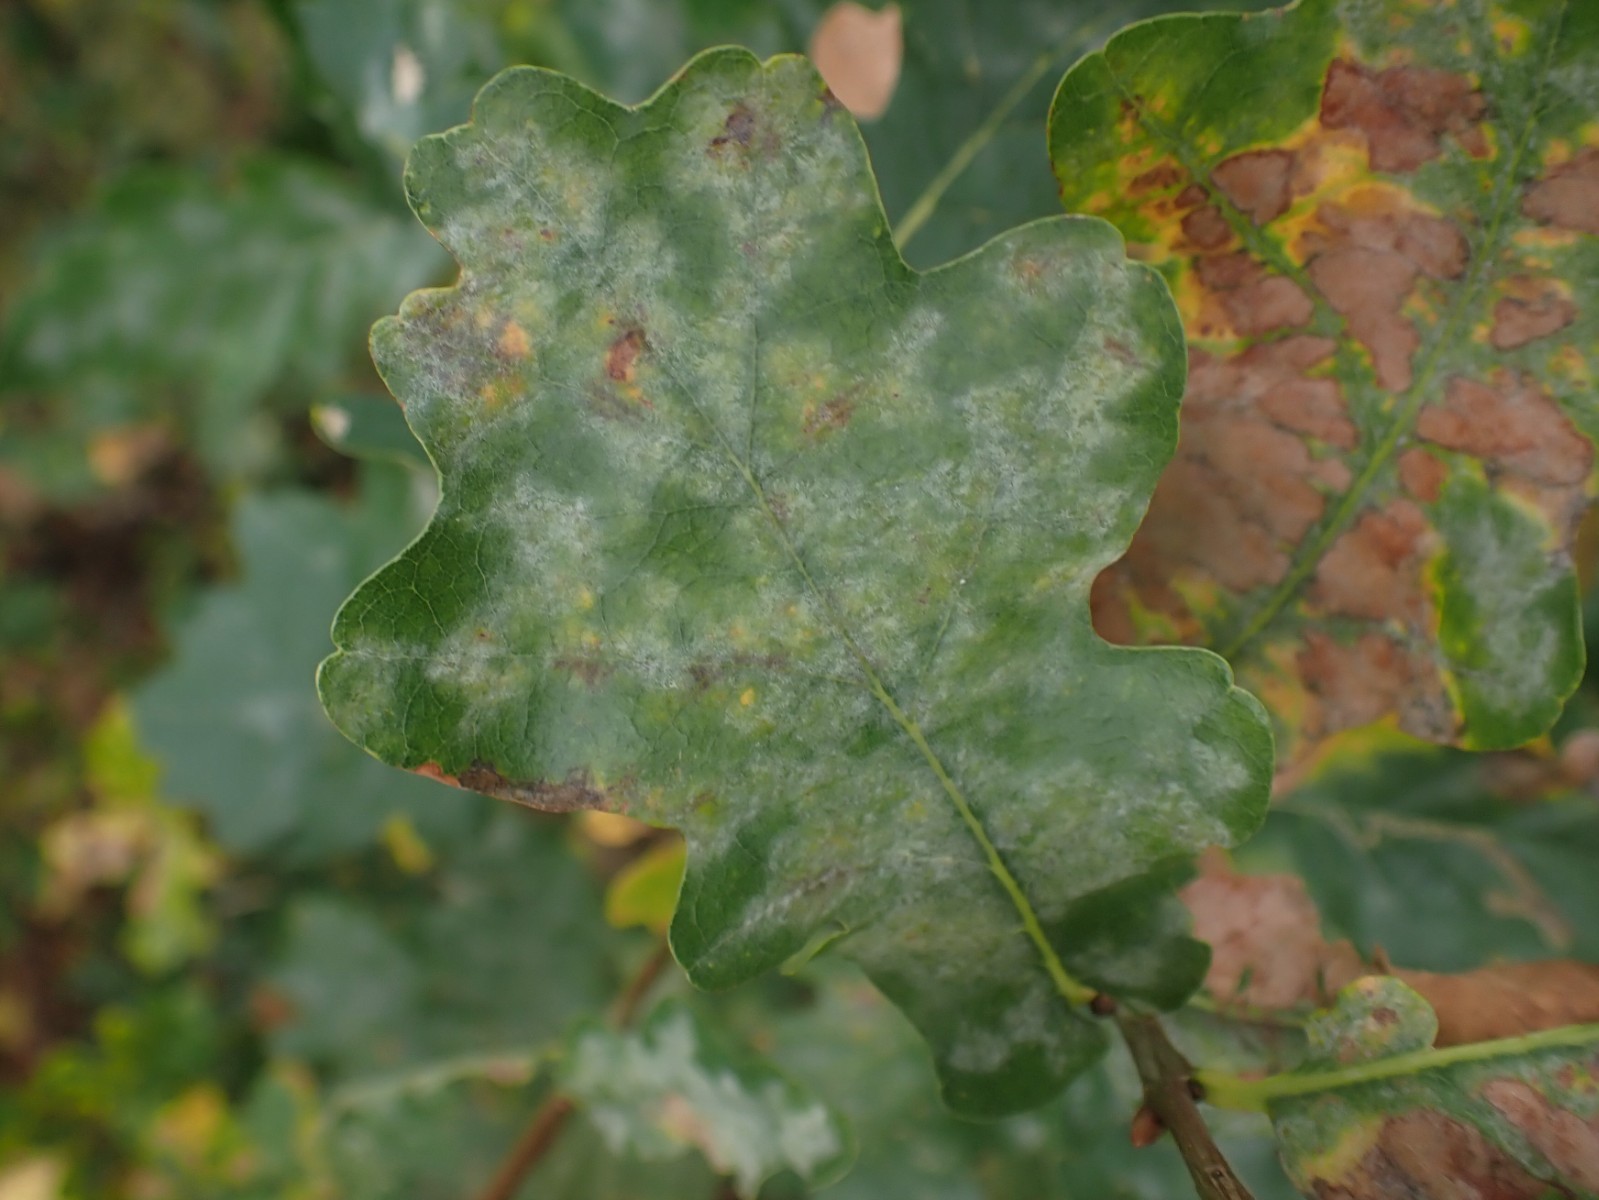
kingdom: Fungi
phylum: Ascomycota
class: Leotiomycetes
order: Helotiales
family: Erysiphaceae
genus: Erysiphe
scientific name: Erysiphe alphitoides
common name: ege-meldug
